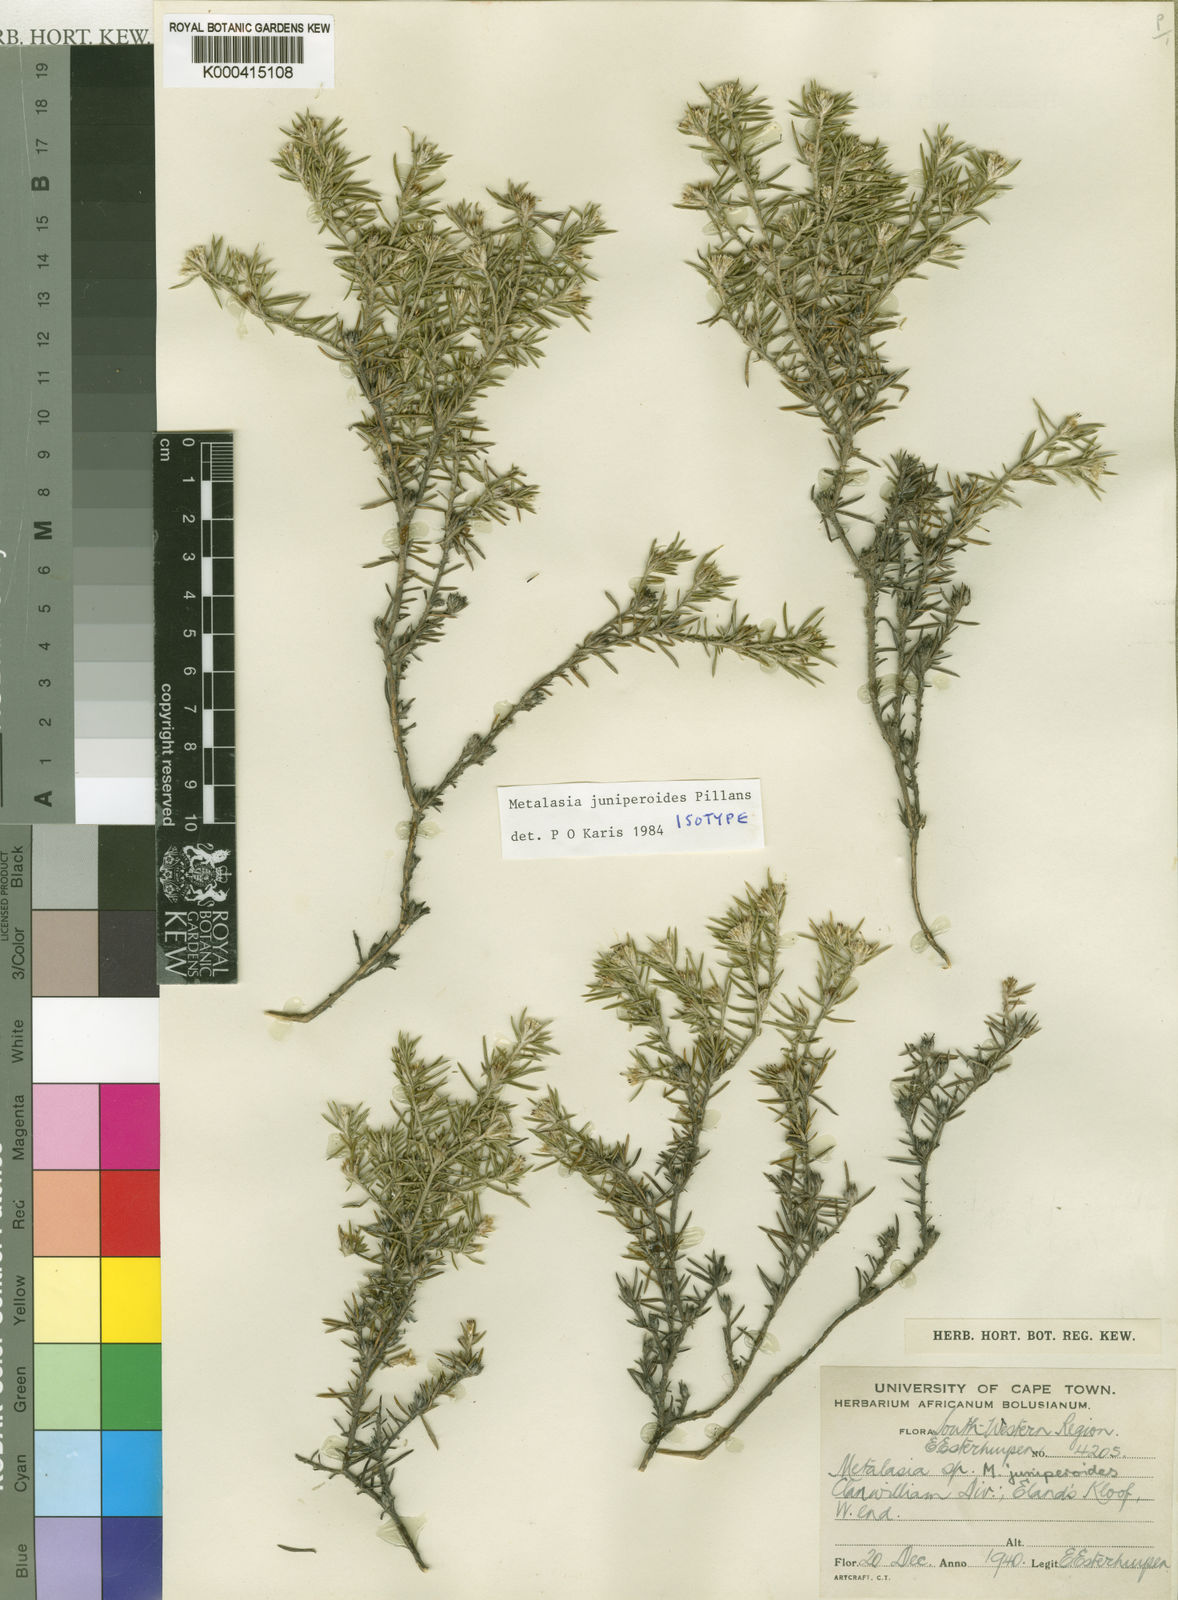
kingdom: Plantae
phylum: Tracheophyta
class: Magnoliopsida
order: Asterales
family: Asteraceae
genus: Metalasia
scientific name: Metalasia juniperoides
